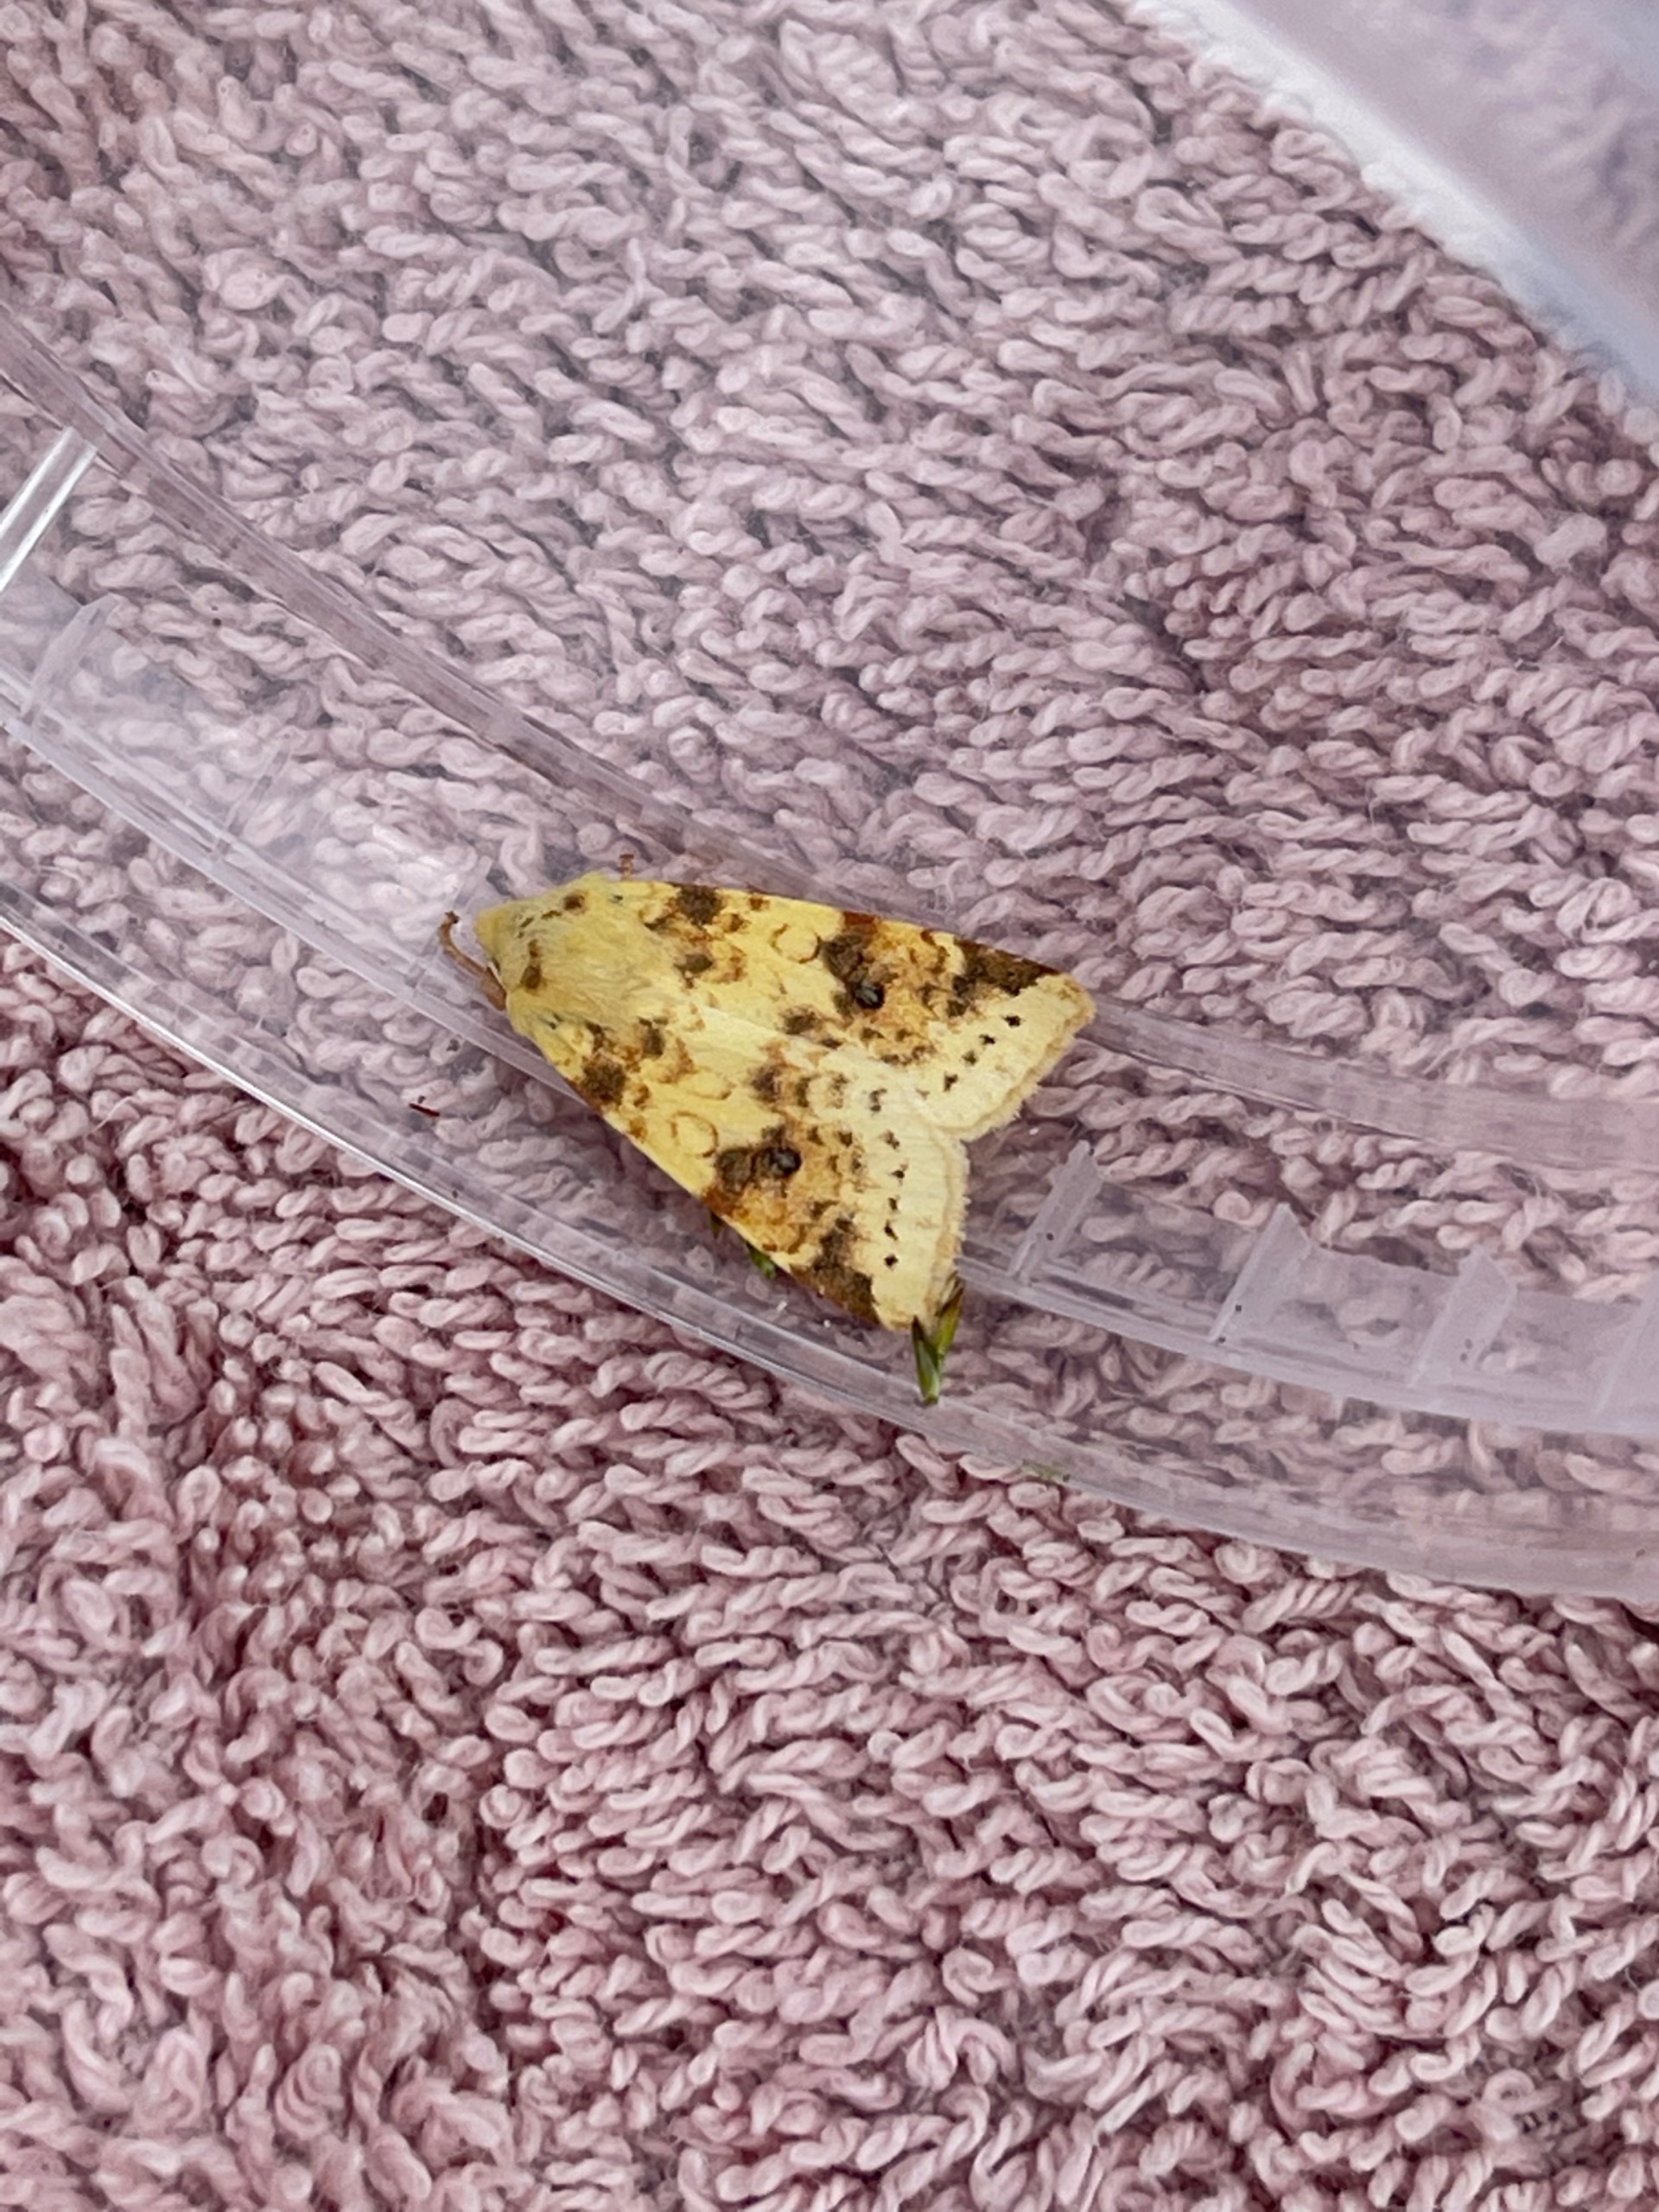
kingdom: Animalia
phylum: Arthropoda
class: Insecta
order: Lepidoptera
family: Noctuidae
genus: Xanthia
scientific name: Xanthia Cirrhia icteritia
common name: Brombær-guldugle
